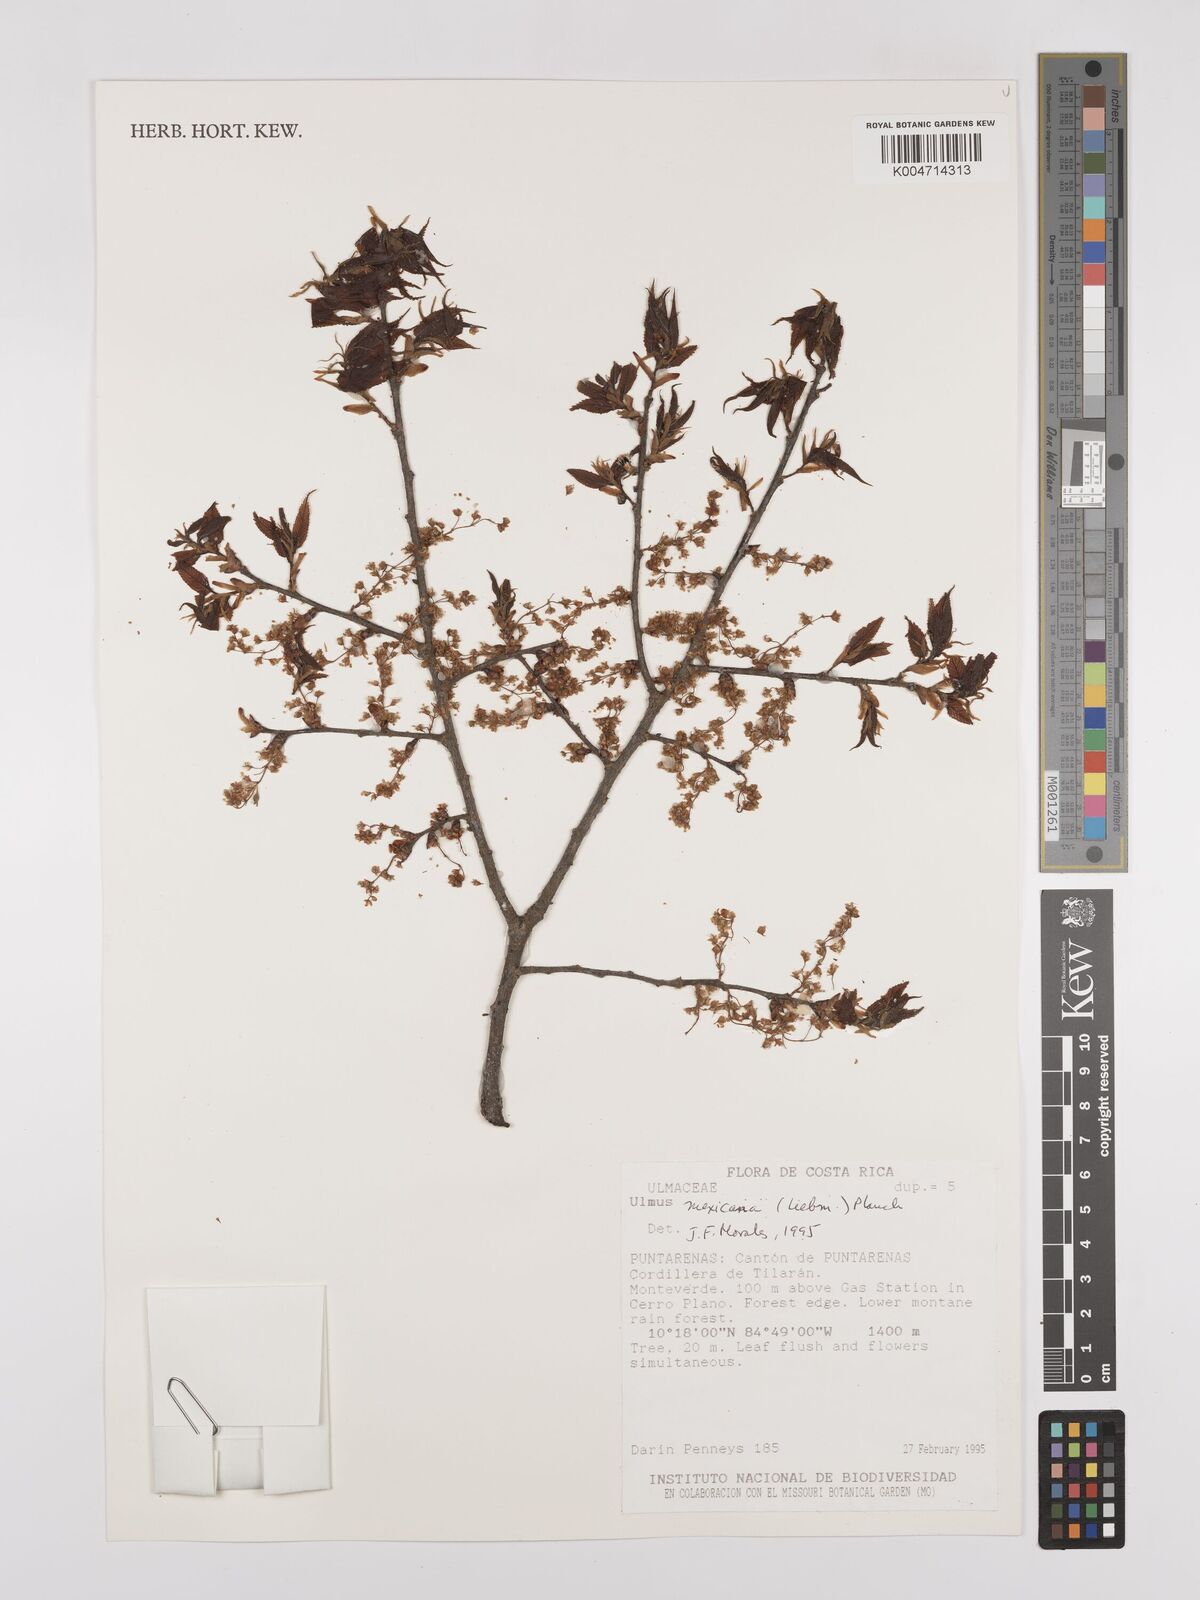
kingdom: Plantae
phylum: Tracheophyta
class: Magnoliopsida
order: Rosales
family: Ulmaceae
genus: Ulmus
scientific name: Ulmus mexicana
